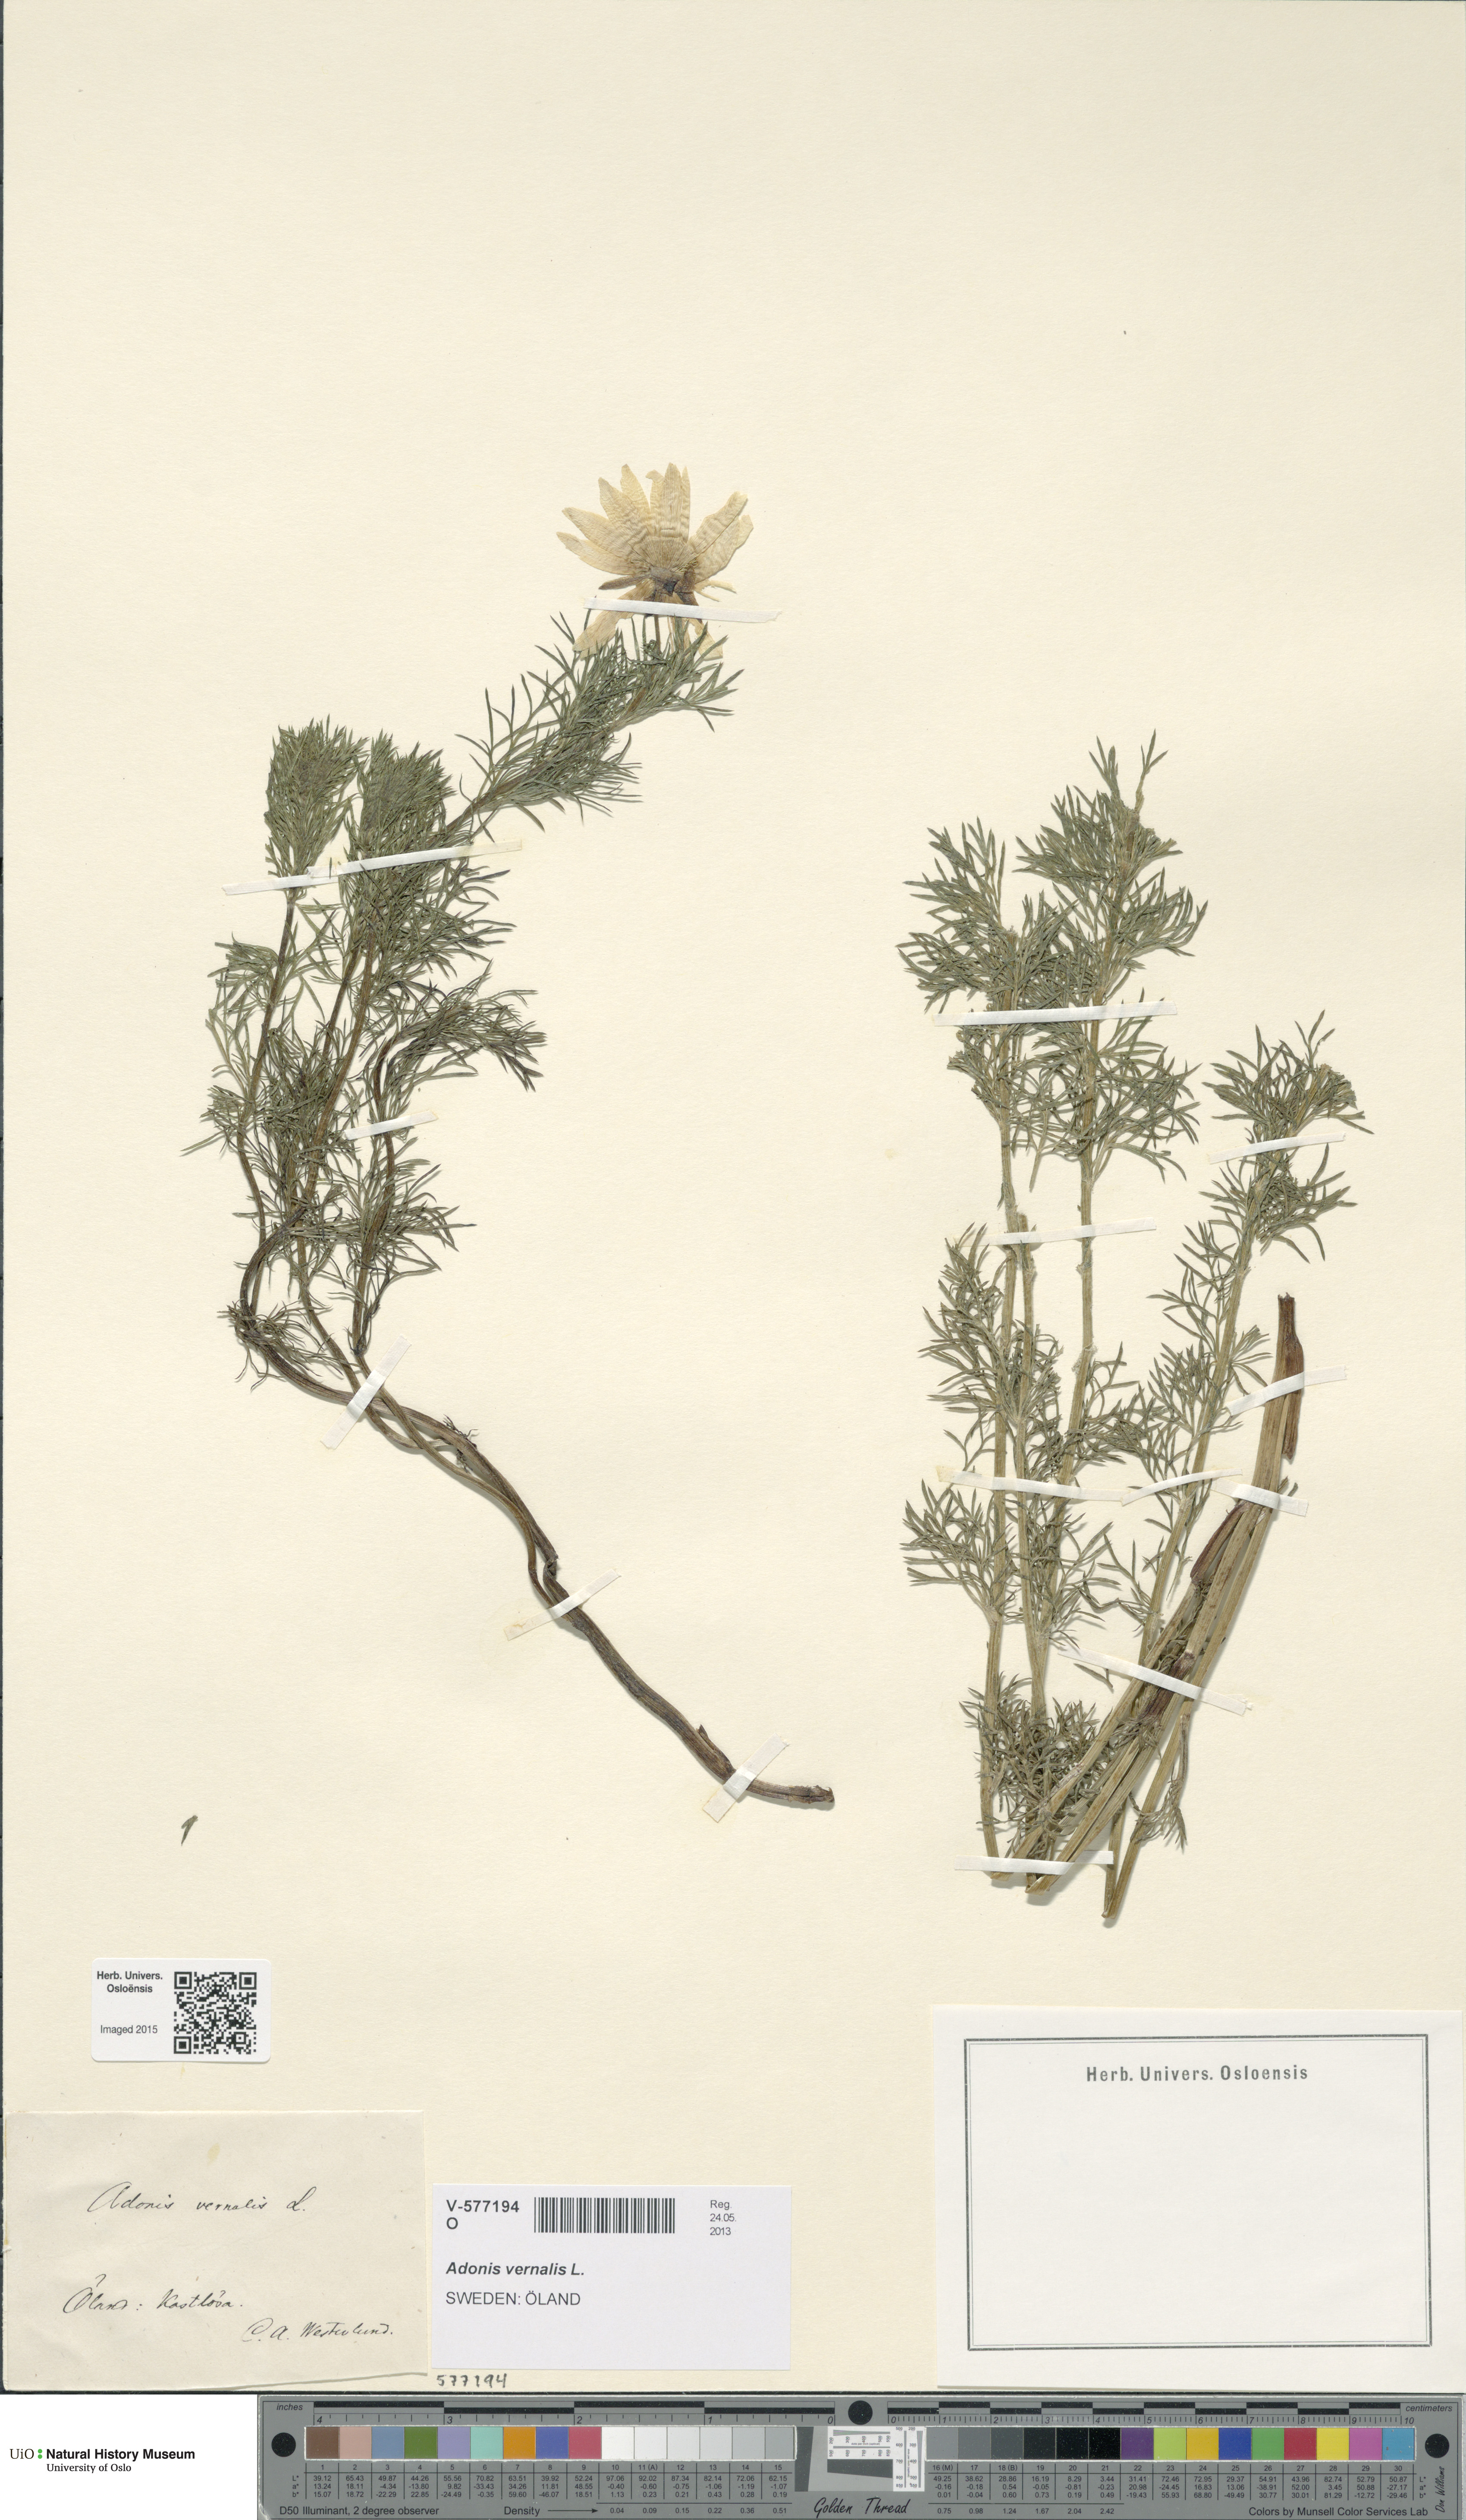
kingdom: Plantae
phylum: Tracheophyta
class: Magnoliopsida
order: Ranunculales
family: Ranunculaceae
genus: Adonis
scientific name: Adonis vernalis
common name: Yellow pheasants-eye
